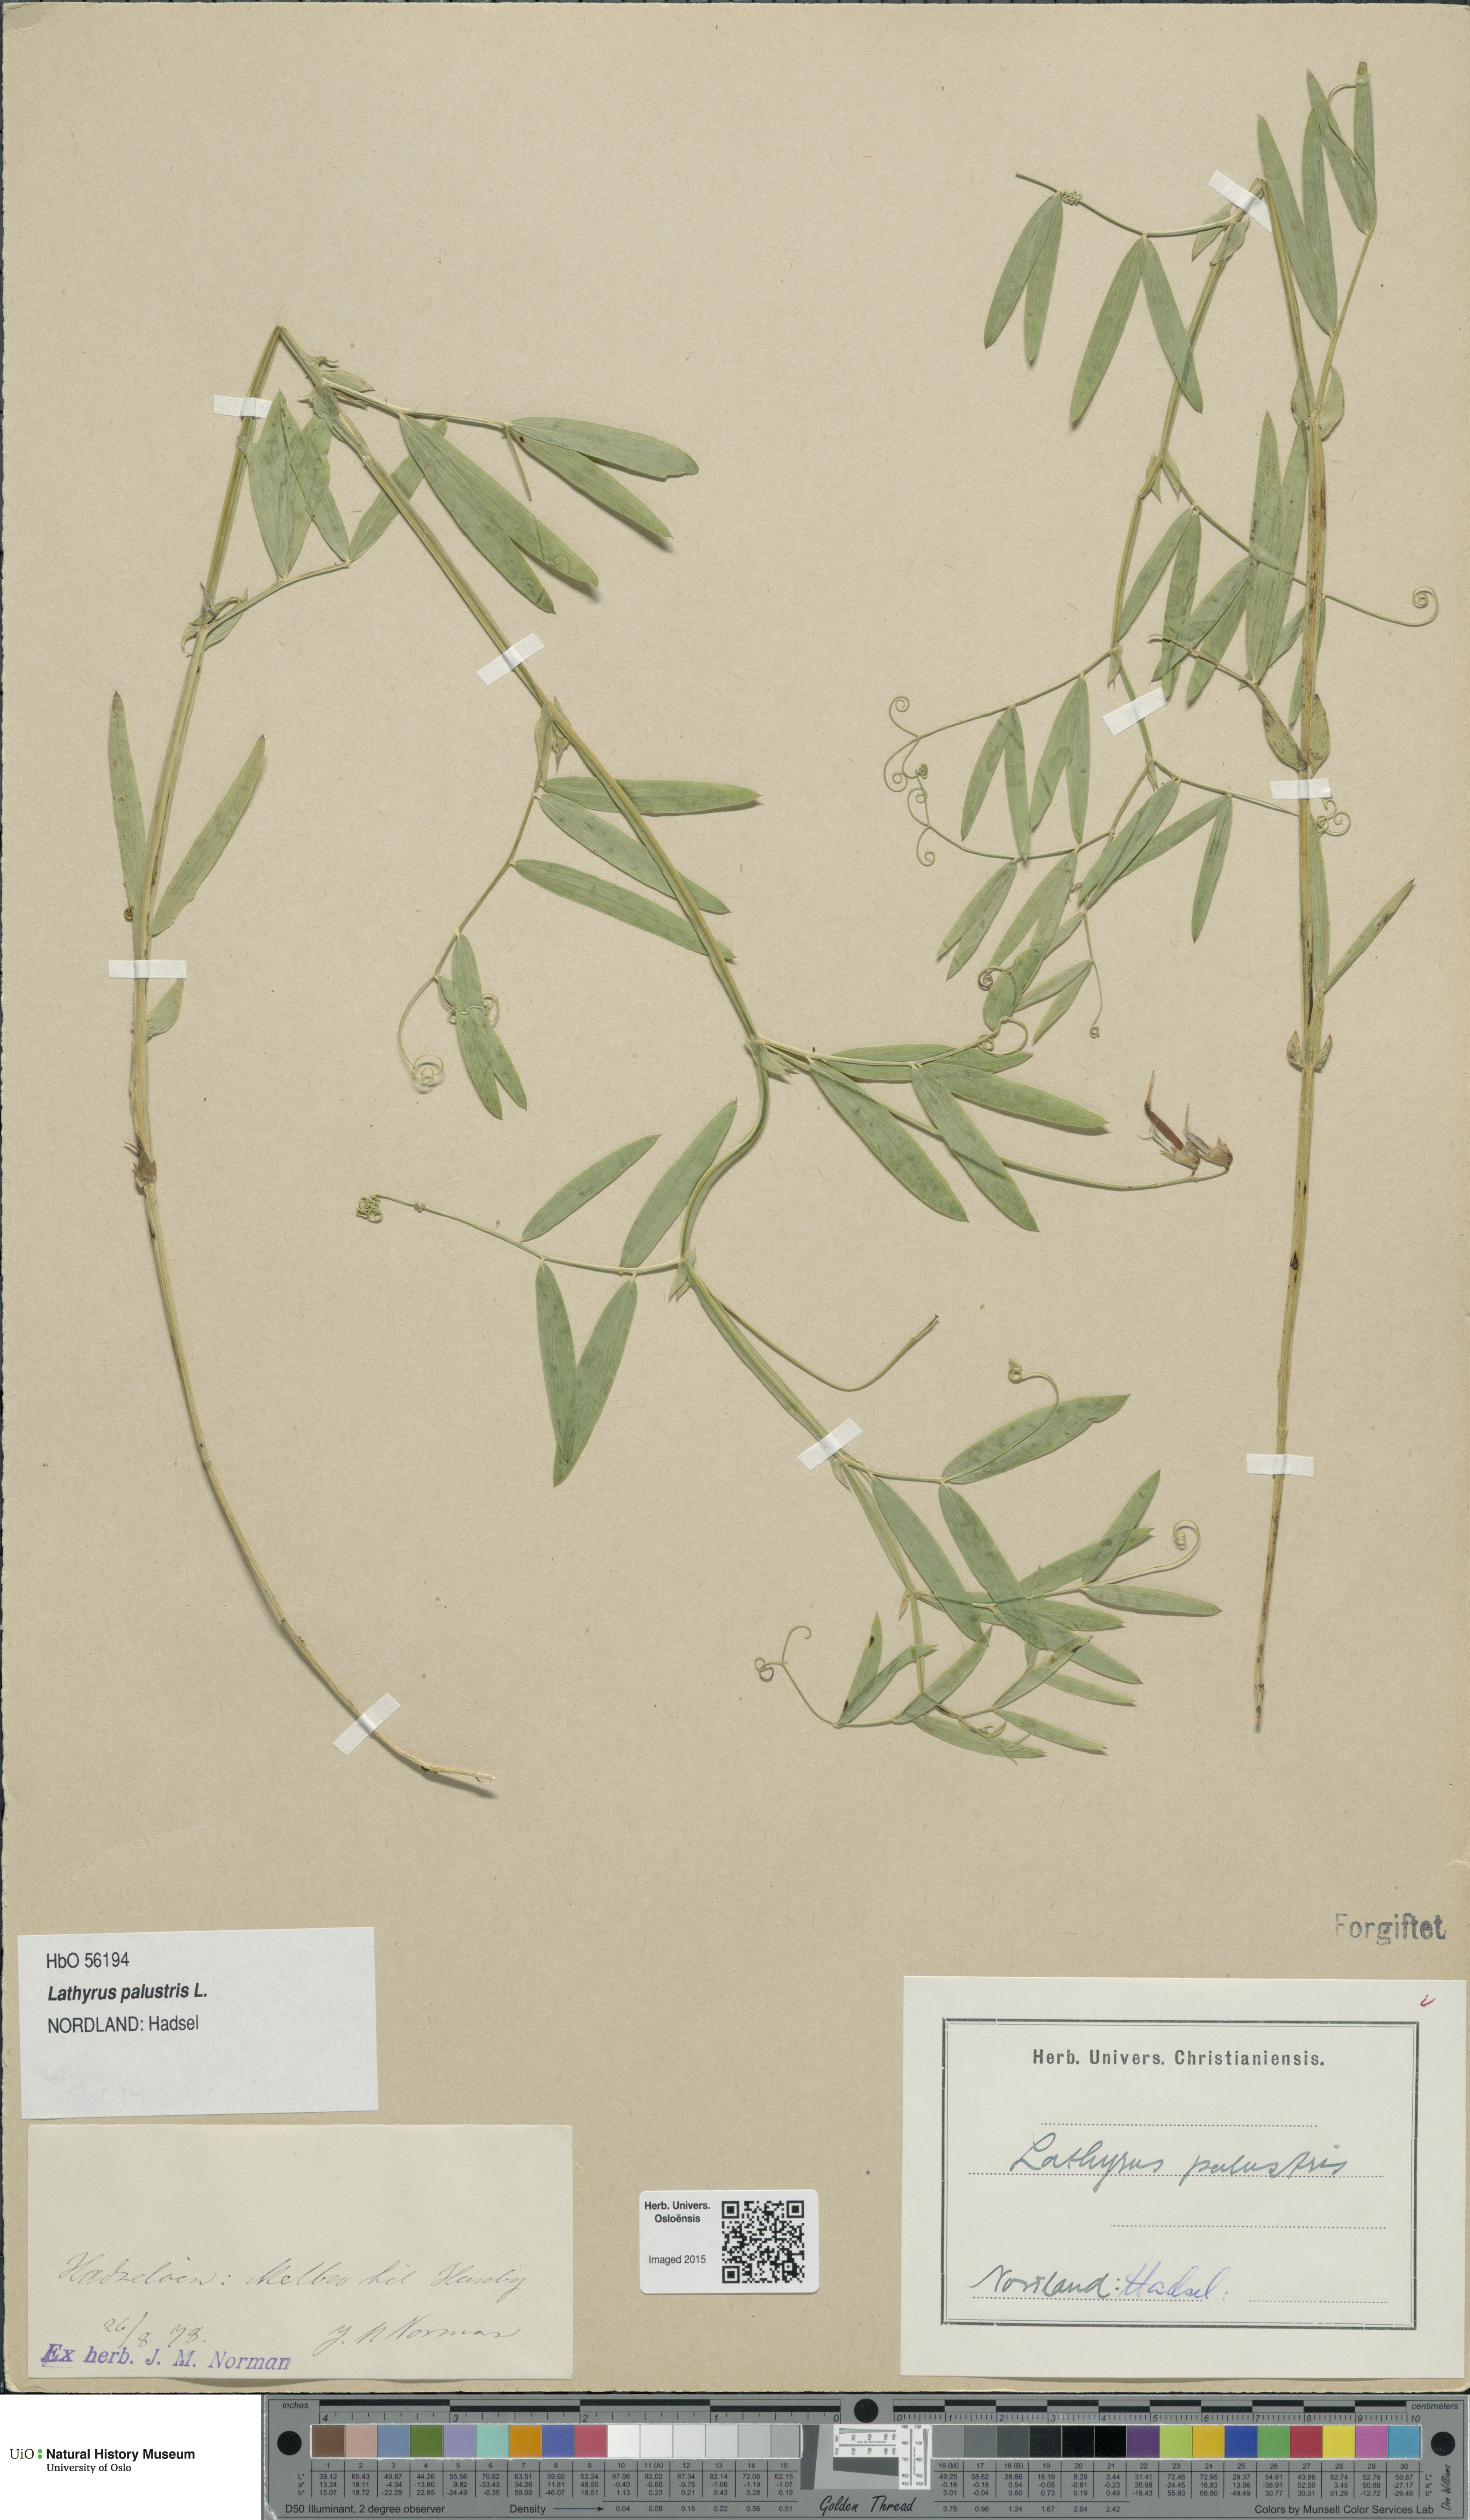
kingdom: Plantae
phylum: Tracheophyta
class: Magnoliopsida
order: Fabales
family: Fabaceae
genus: Lathyrus
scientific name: Lathyrus palustris
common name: Marsh pea
